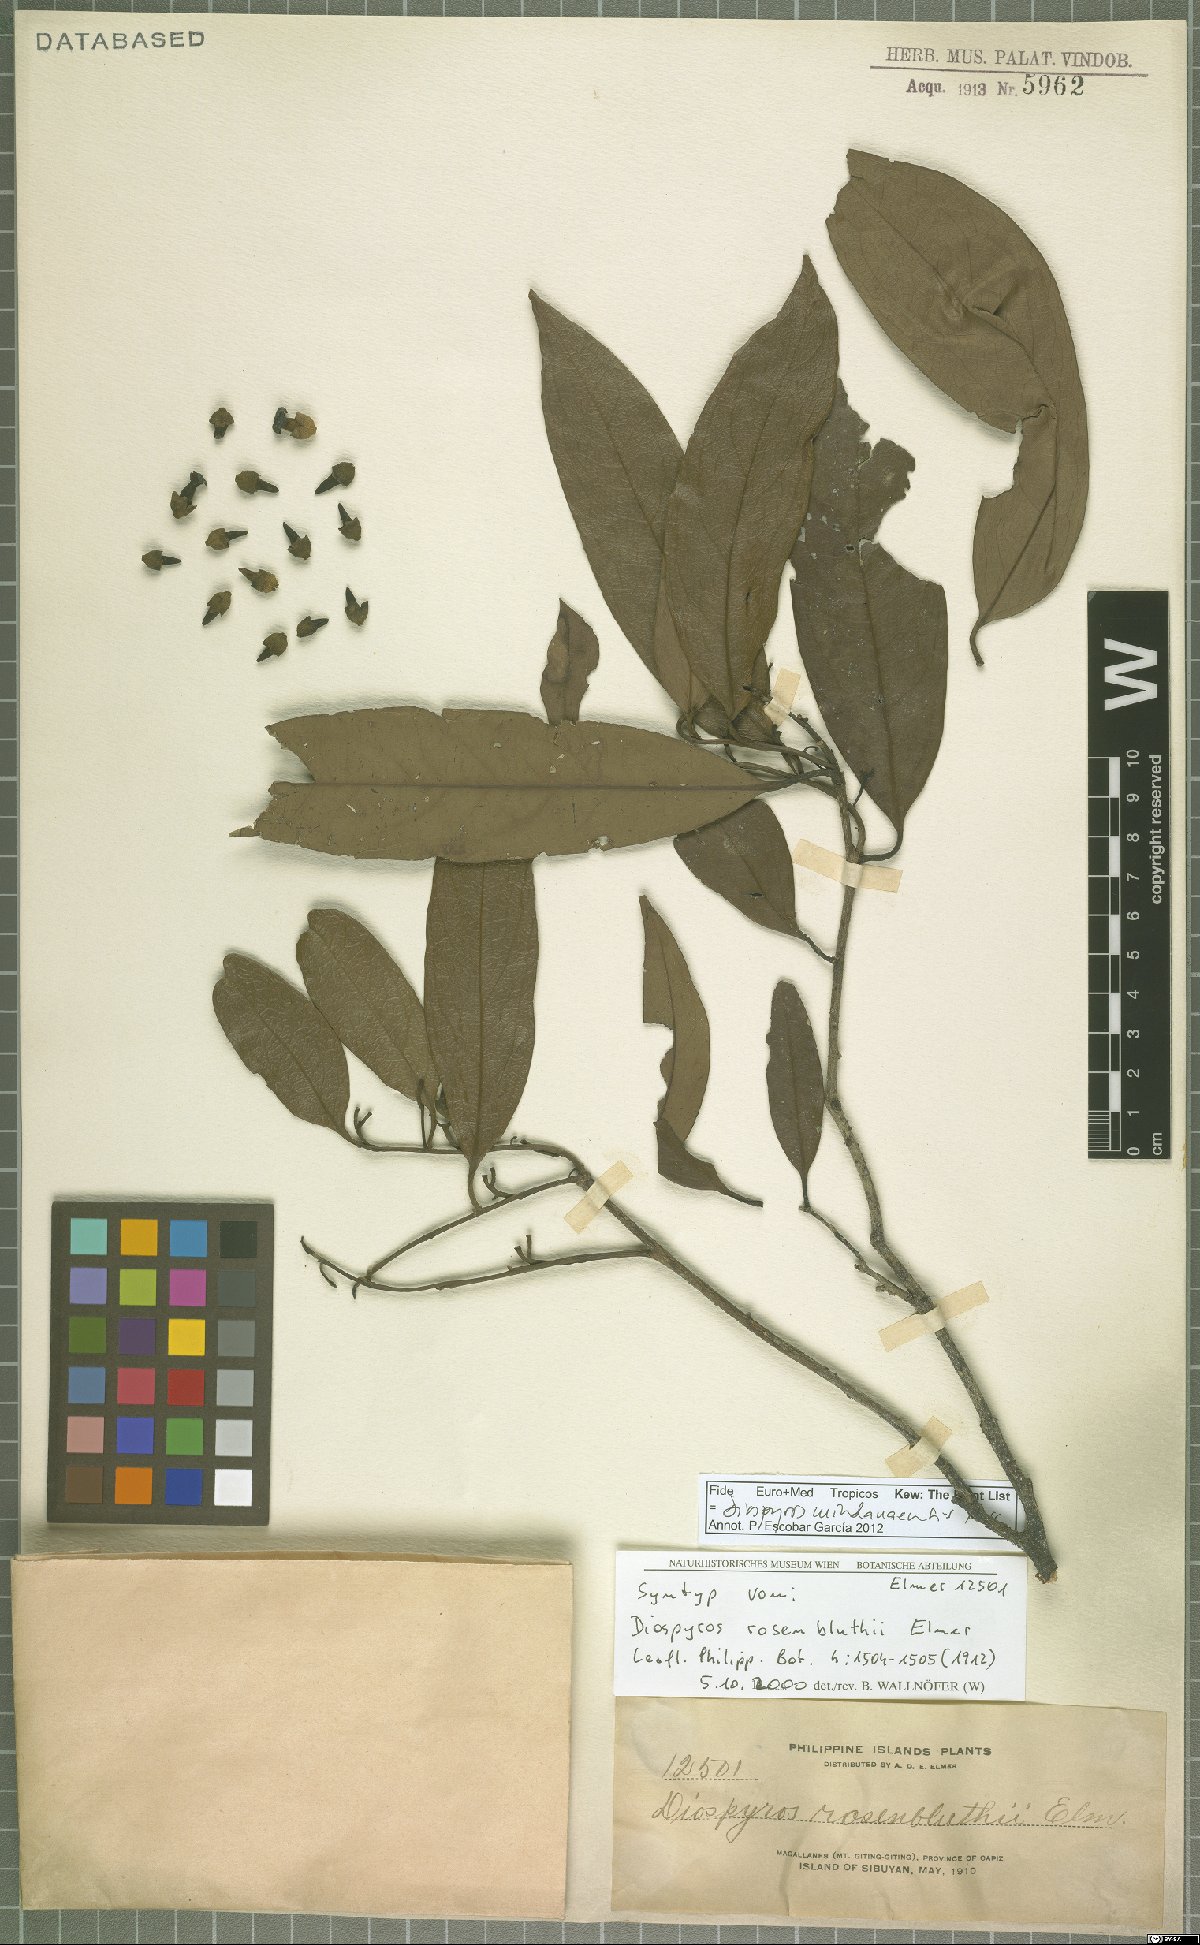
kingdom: Plantae
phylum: Tracheophyta
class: Magnoliopsida
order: Ericales
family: Ebenaceae
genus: Diospyros
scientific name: Diospyros mindanaensis
